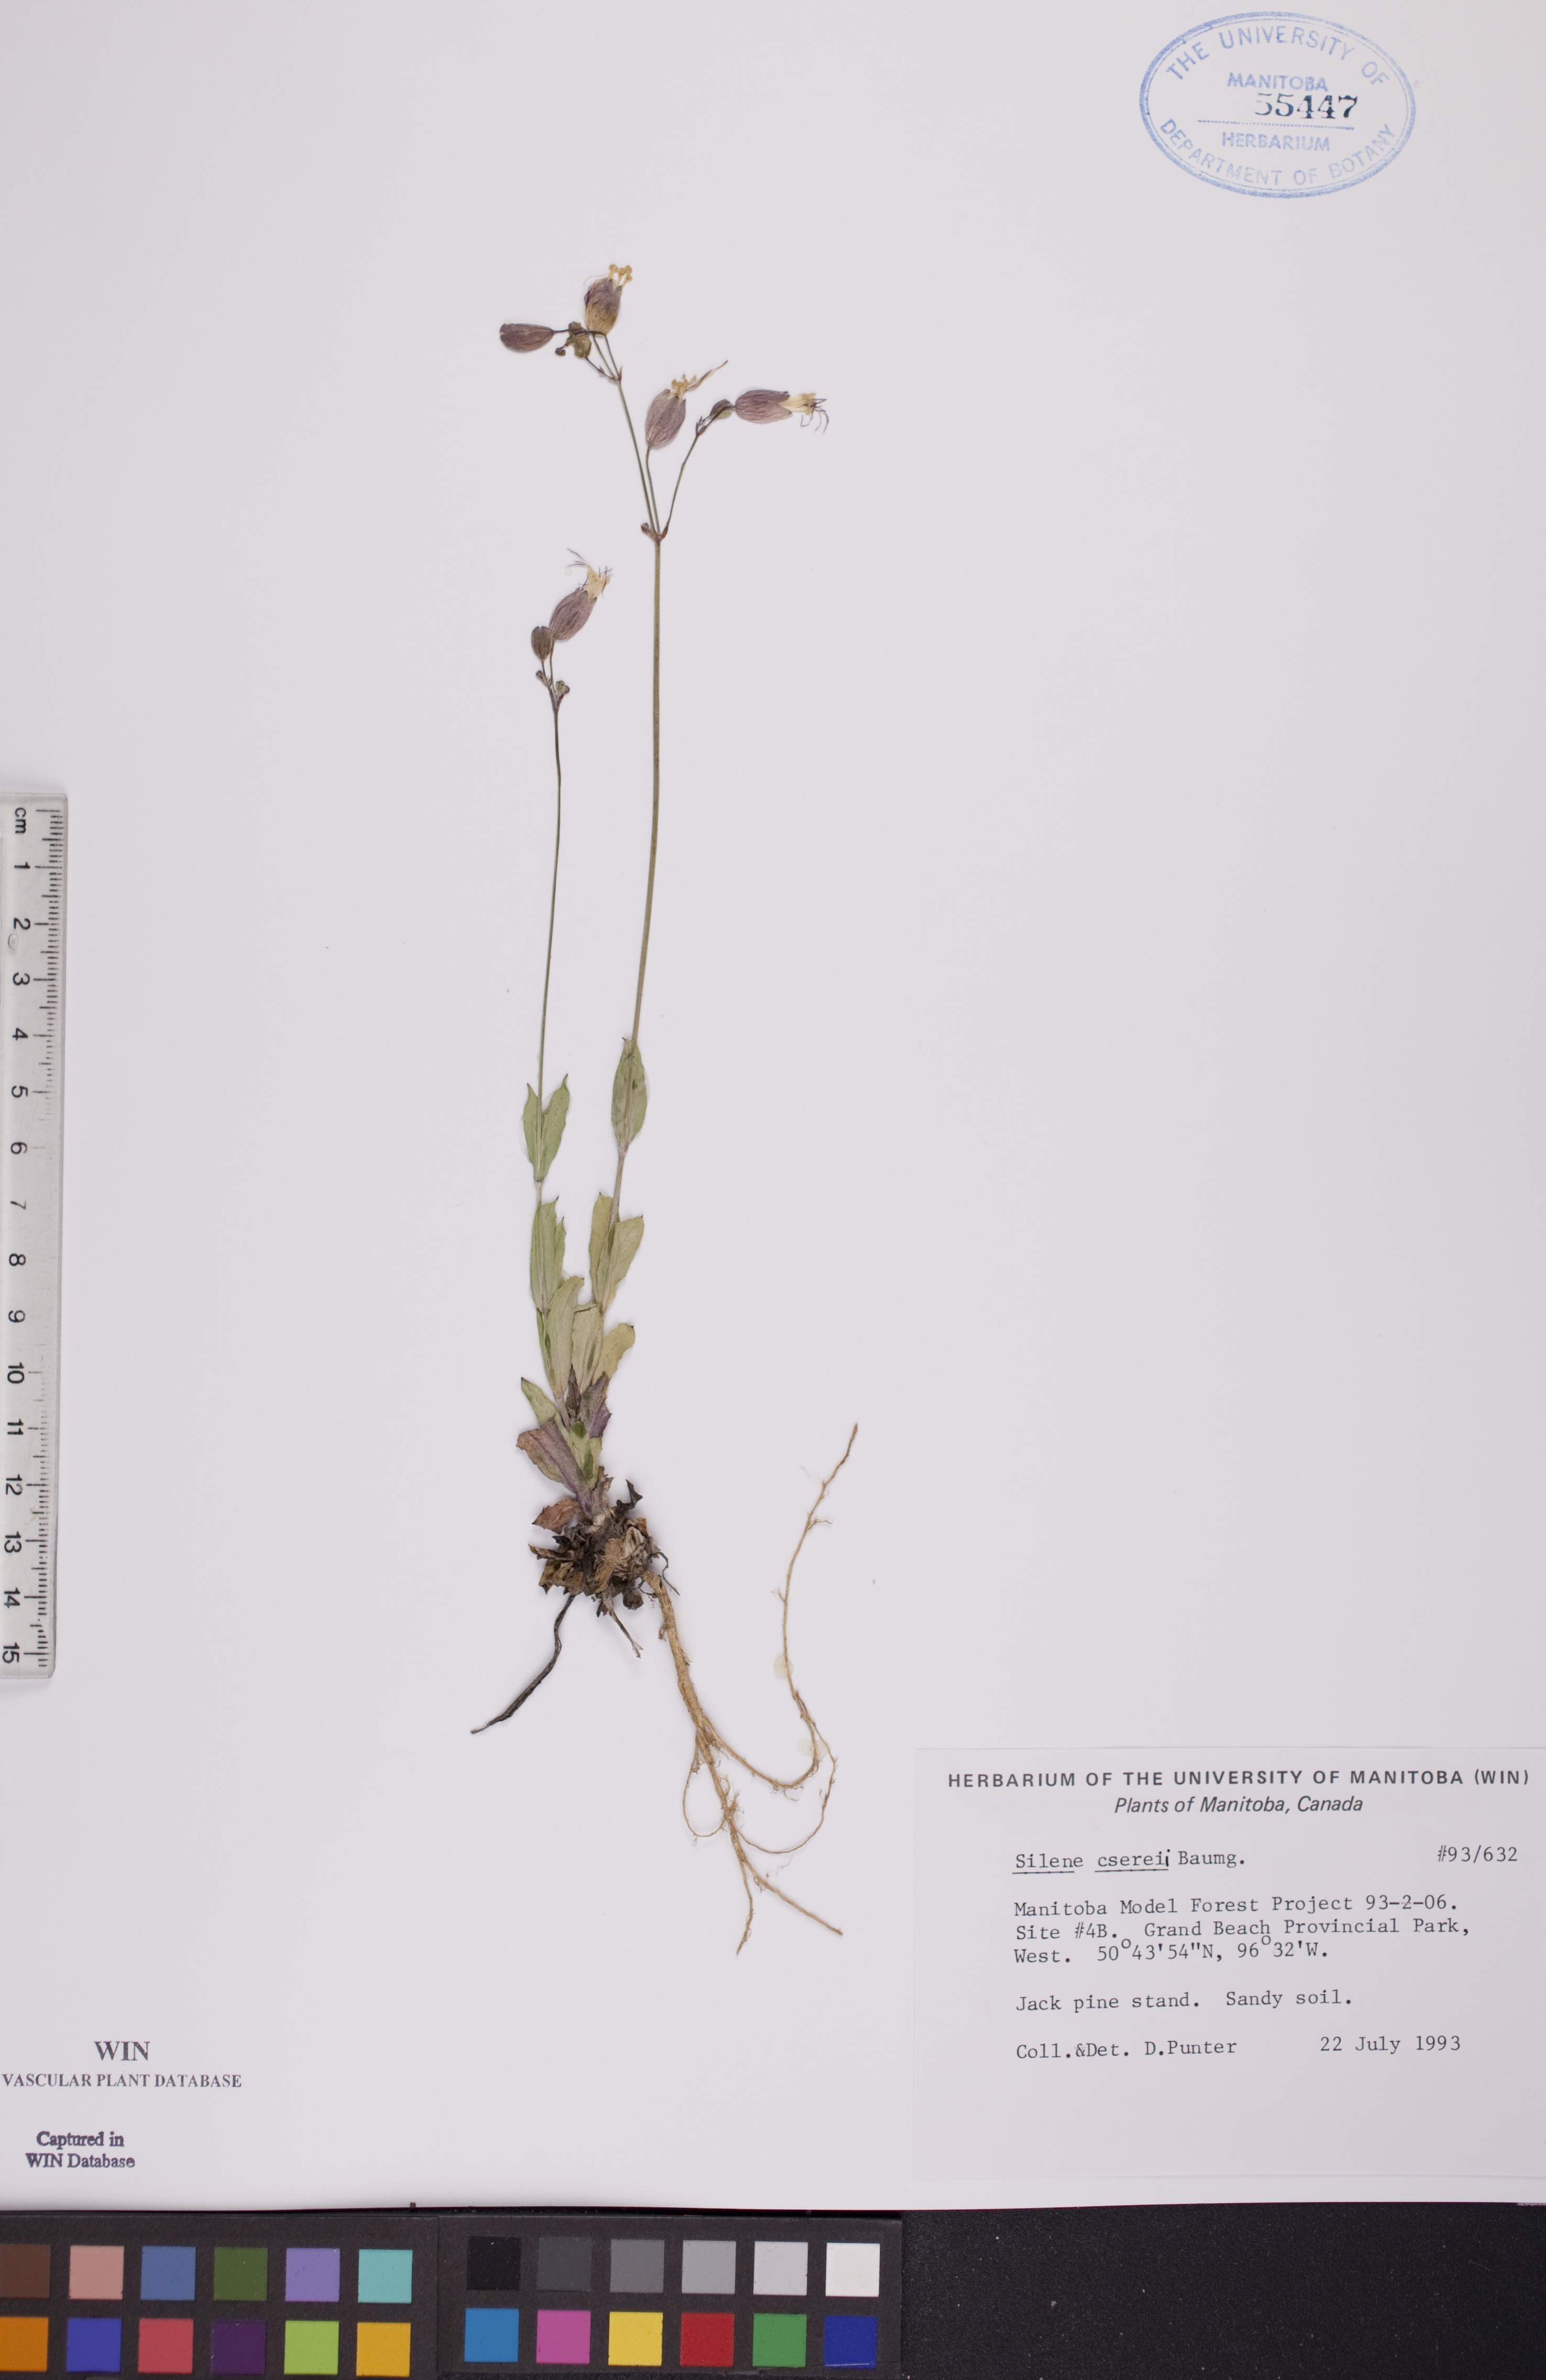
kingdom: Plantae
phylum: Tracheophyta
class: Magnoliopsida
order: Caryophyllales
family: Caryophyllaceae
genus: Silene
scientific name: Silene csereii
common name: Balkan catchfly
